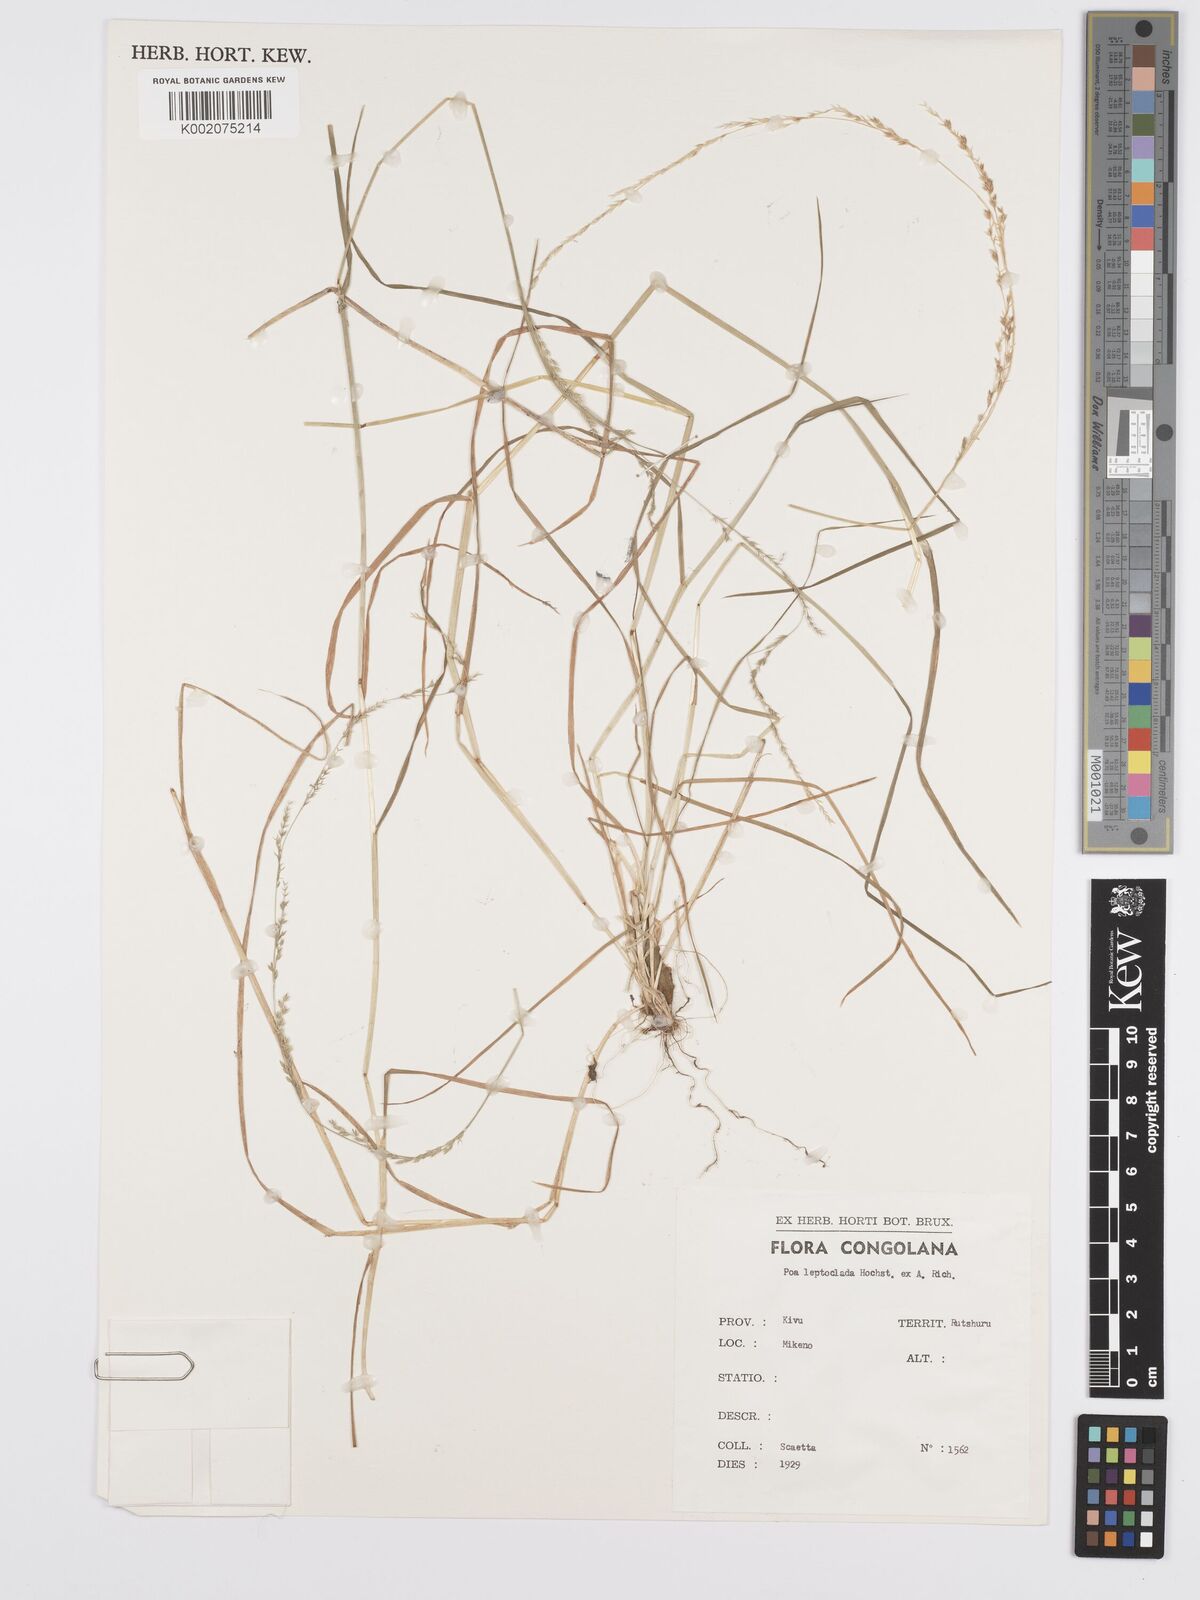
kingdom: Plantae
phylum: Tracheophyta
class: Liliopsida
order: Poales
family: Poaceae
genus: Poa
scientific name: Poa leptoclada
